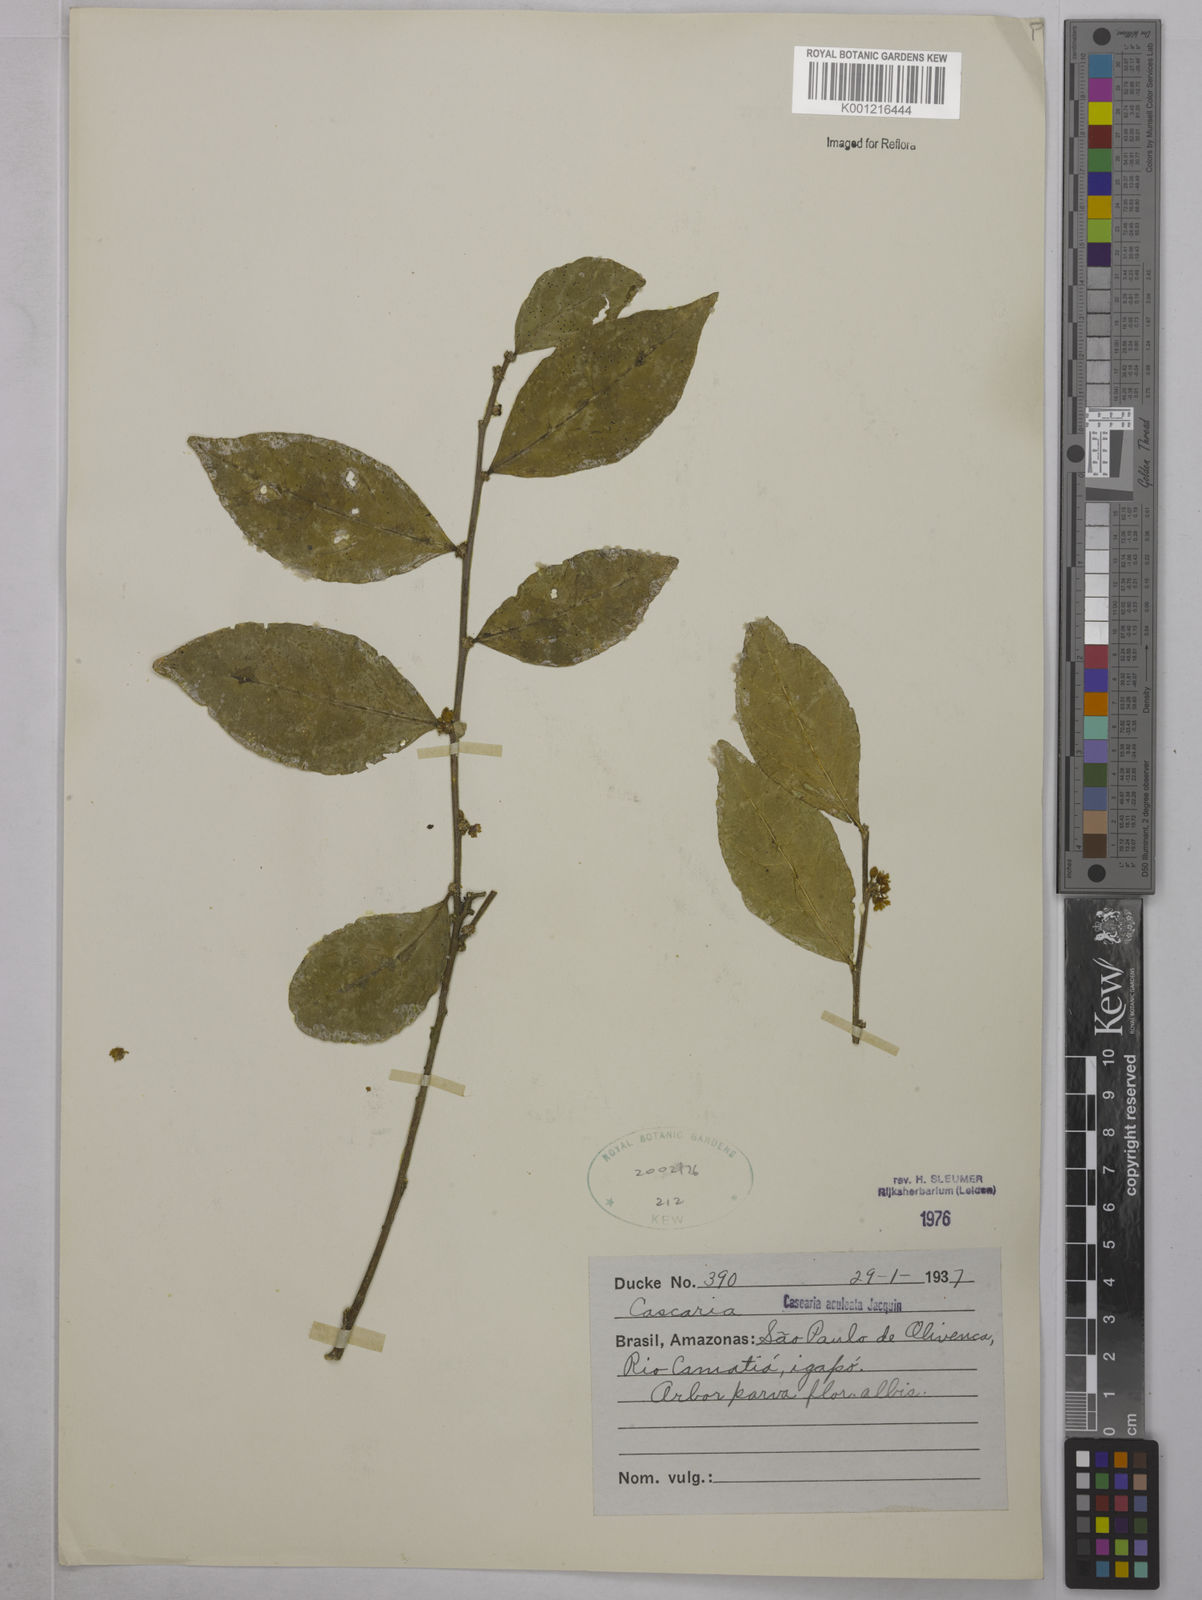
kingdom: Plantae
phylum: Tracheophyta
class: Magnoliopsida
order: Malpighiales
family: Salicaceae
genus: Casearia
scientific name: Casearia aculeata
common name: Cockspur
